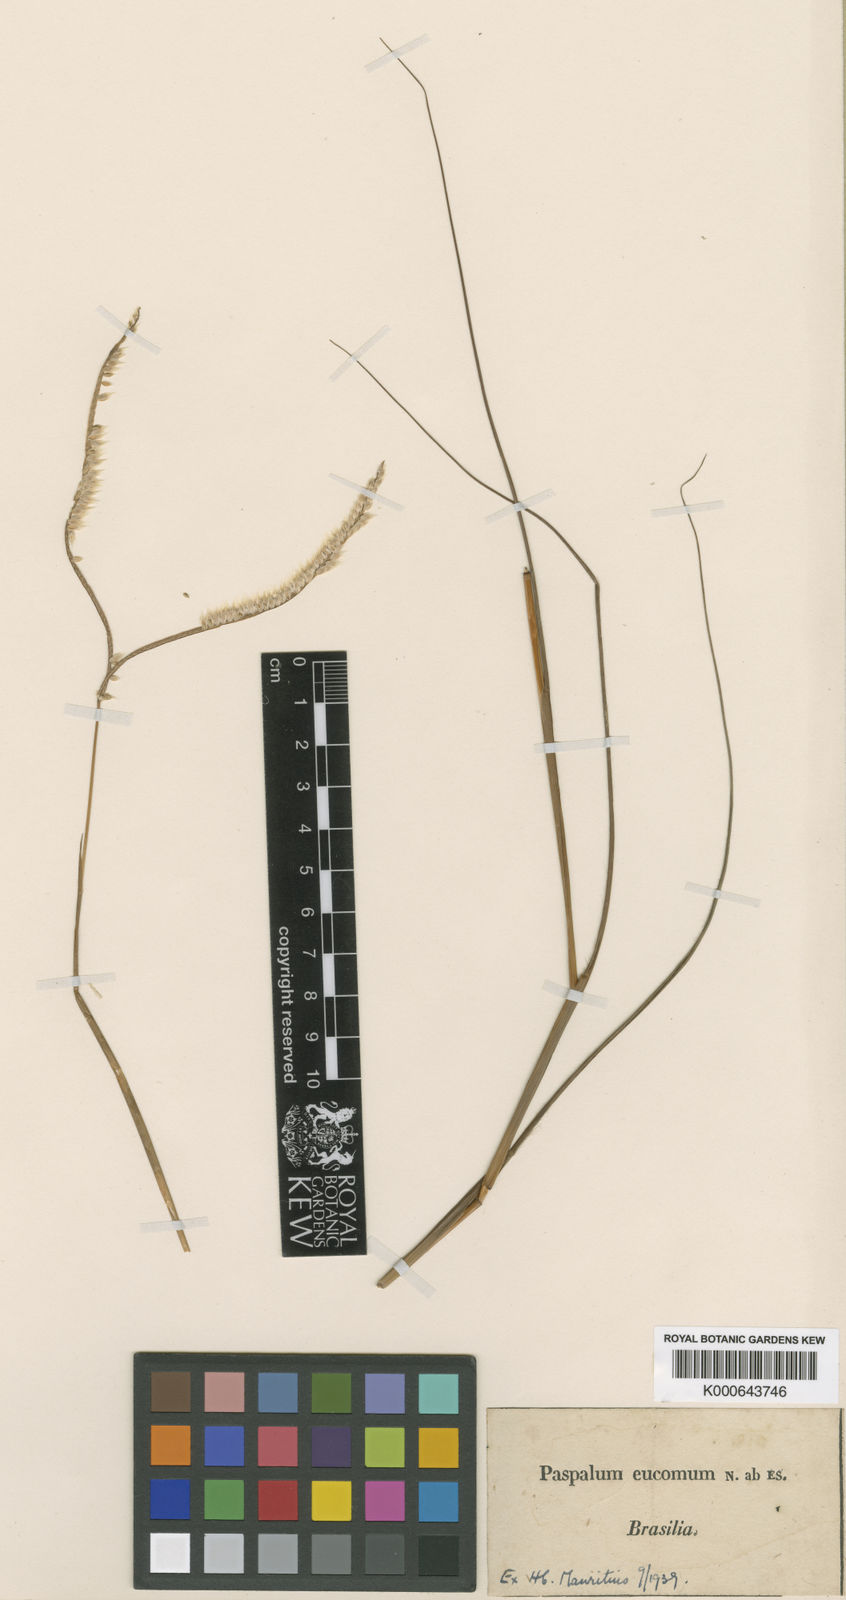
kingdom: Plantae
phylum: Tracheophyta
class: Liliopsida
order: Poales
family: Poaceae
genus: Paspalum
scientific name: Paspalum eucomum
